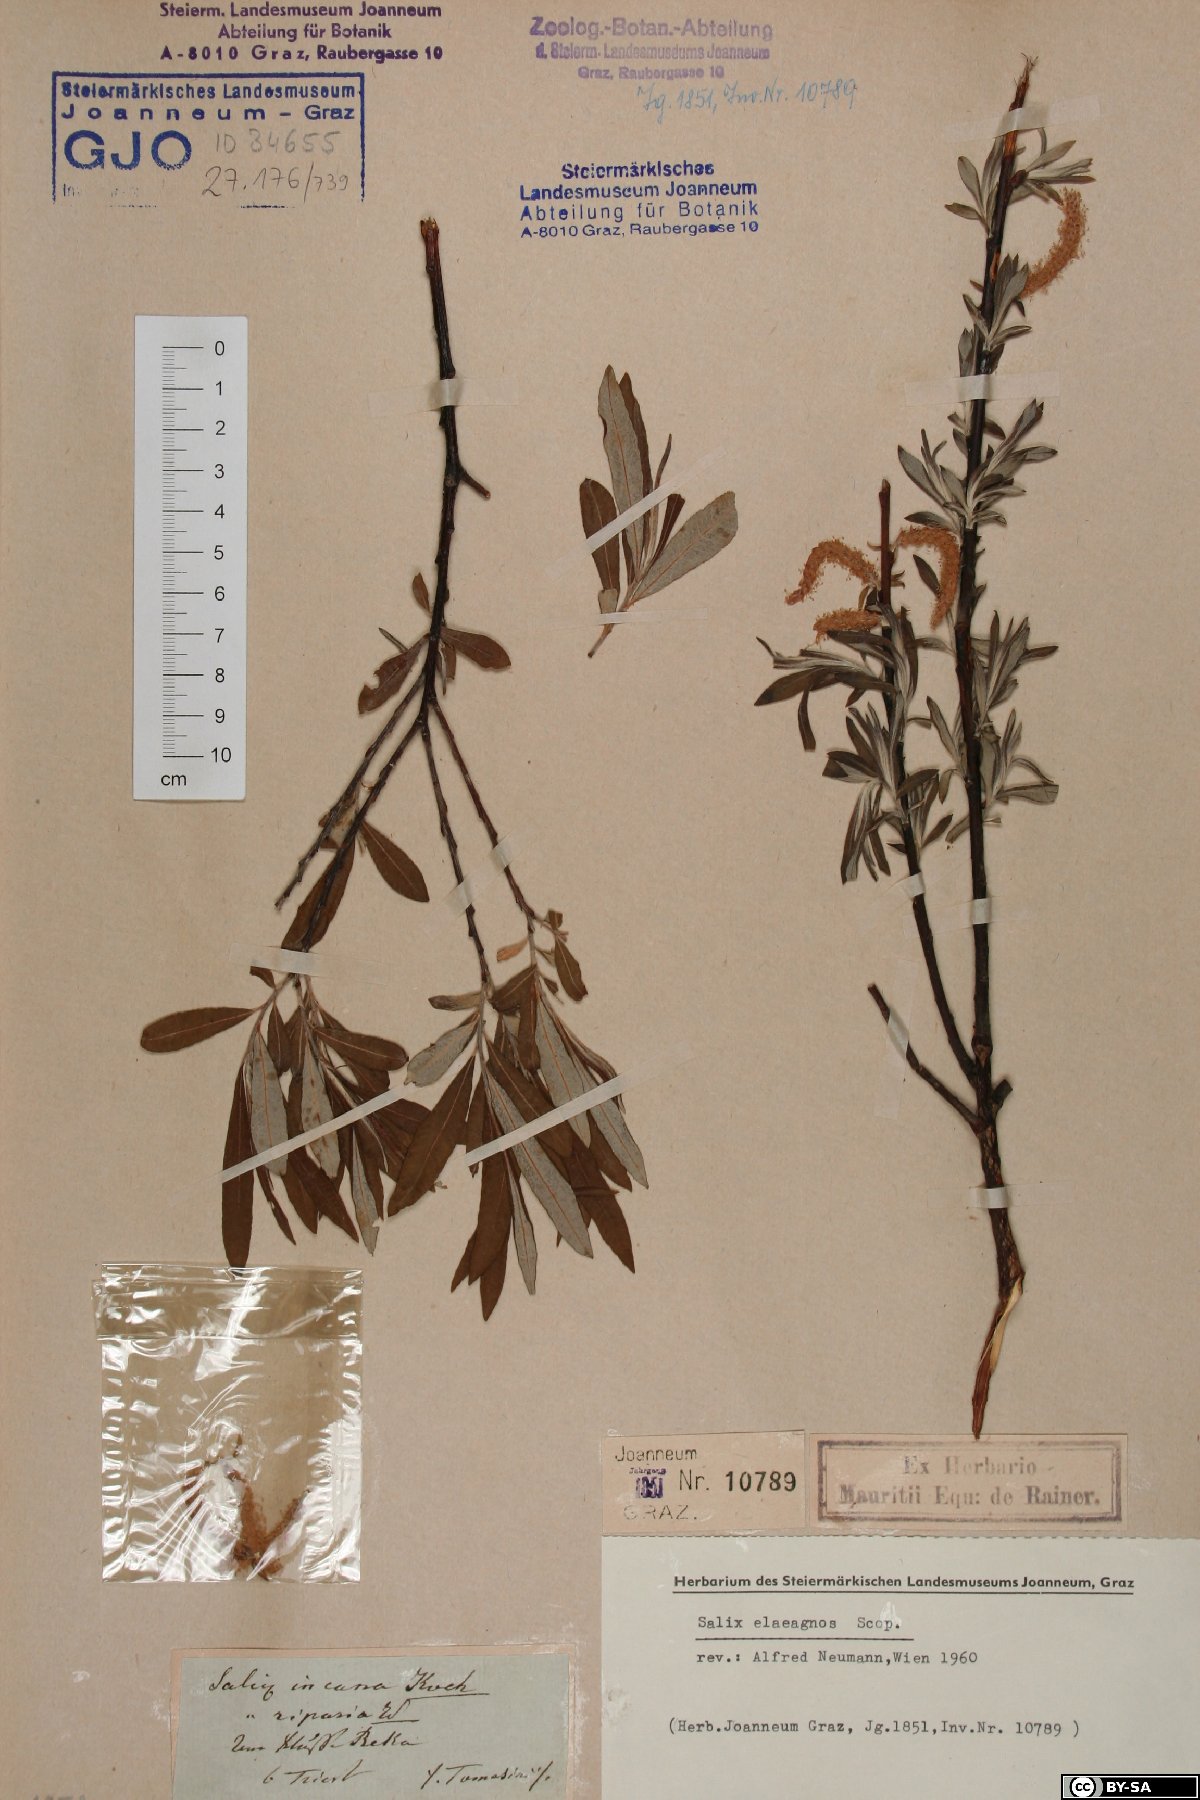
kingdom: Plantae
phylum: Tracheophyta
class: Magnoliopsida
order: Malpighiales
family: Salicaceae
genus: Salix
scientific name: Salix eleagnos
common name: Elaeagnus willow
